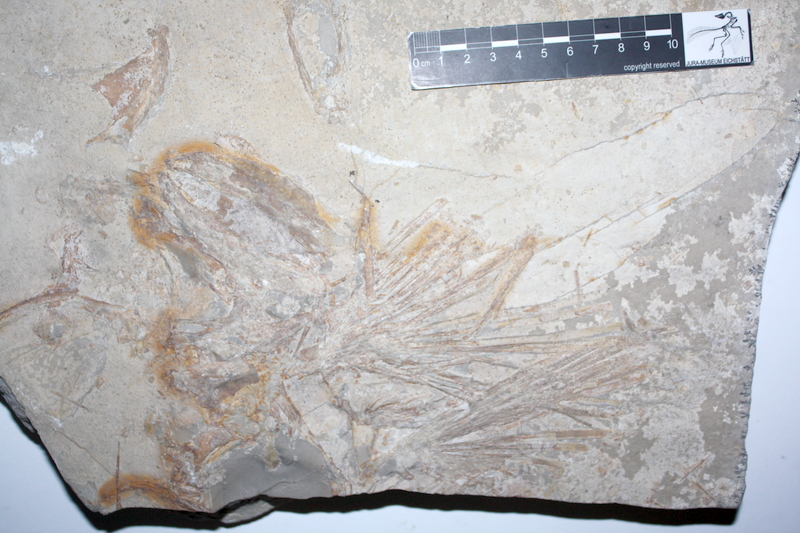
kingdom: Animalia
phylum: Chordata
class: Coelacanthi
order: Coelacanthiformes
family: Laugiidae
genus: Coccoderma
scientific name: Coccoderma suevicum
